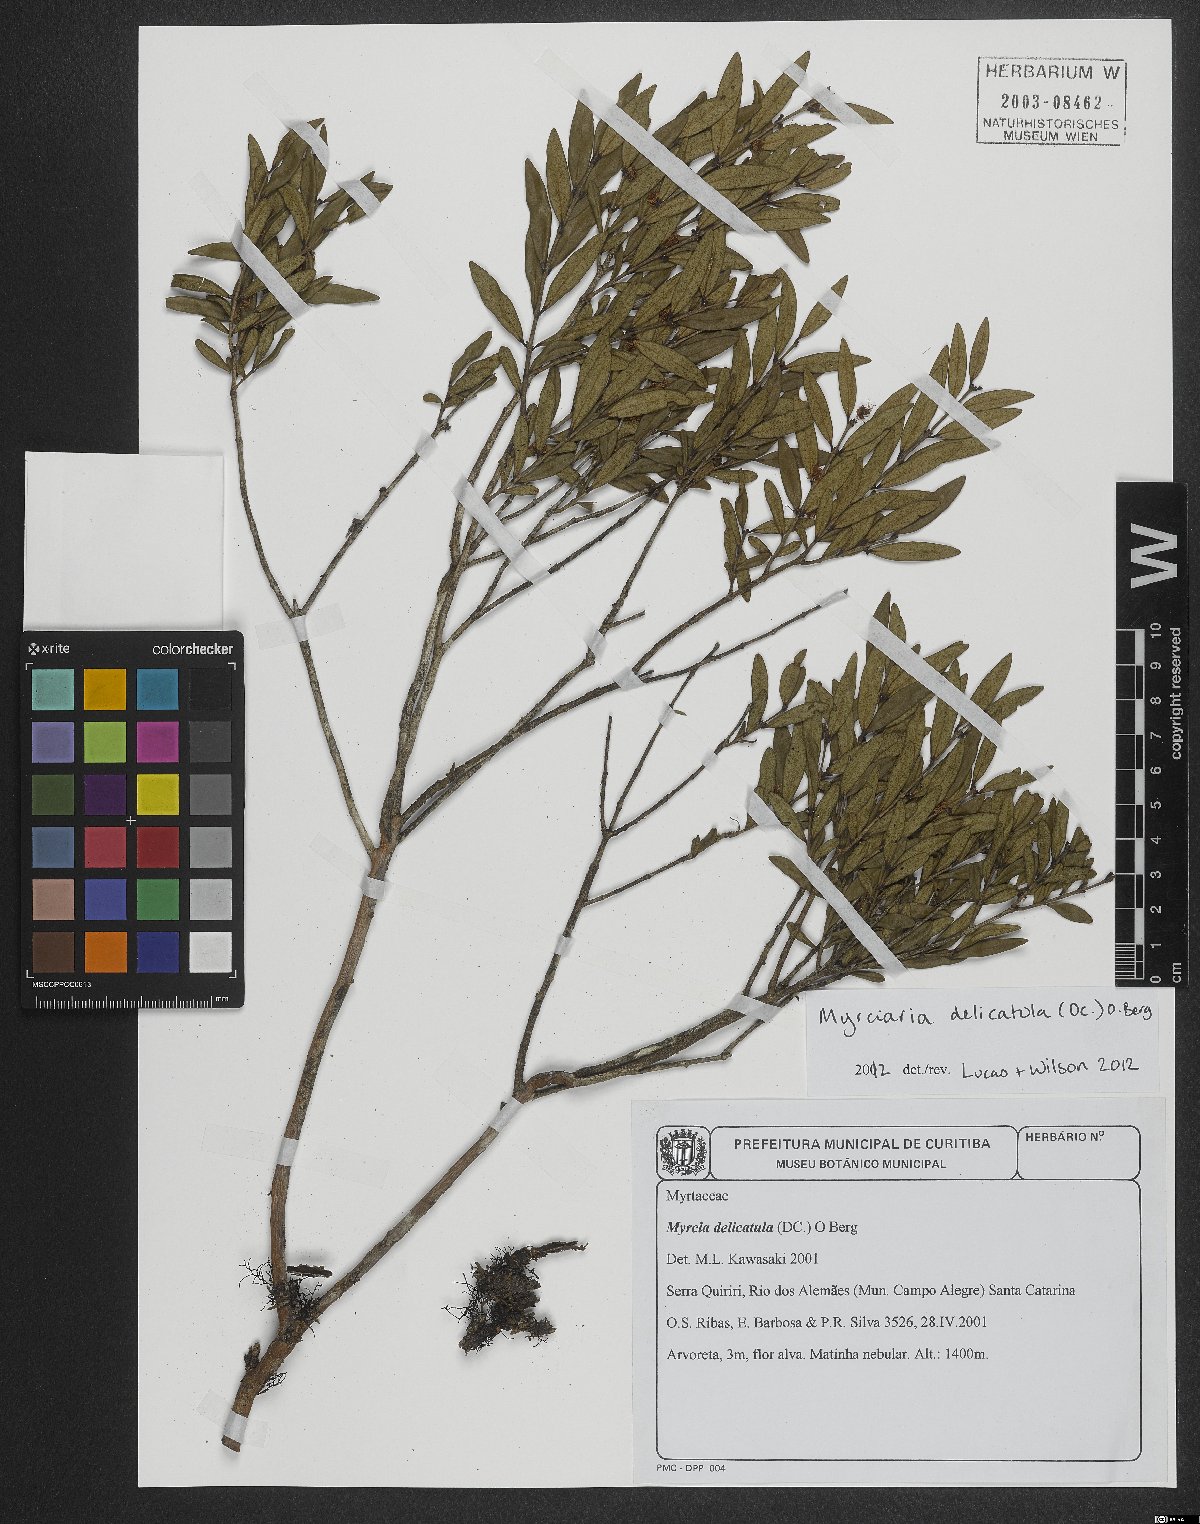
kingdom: Plantae
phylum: Tracheophyta
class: Magnoliopsida
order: Myrtales
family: Myrtaceae
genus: Myrciaria
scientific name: Myrciaria delicatula
